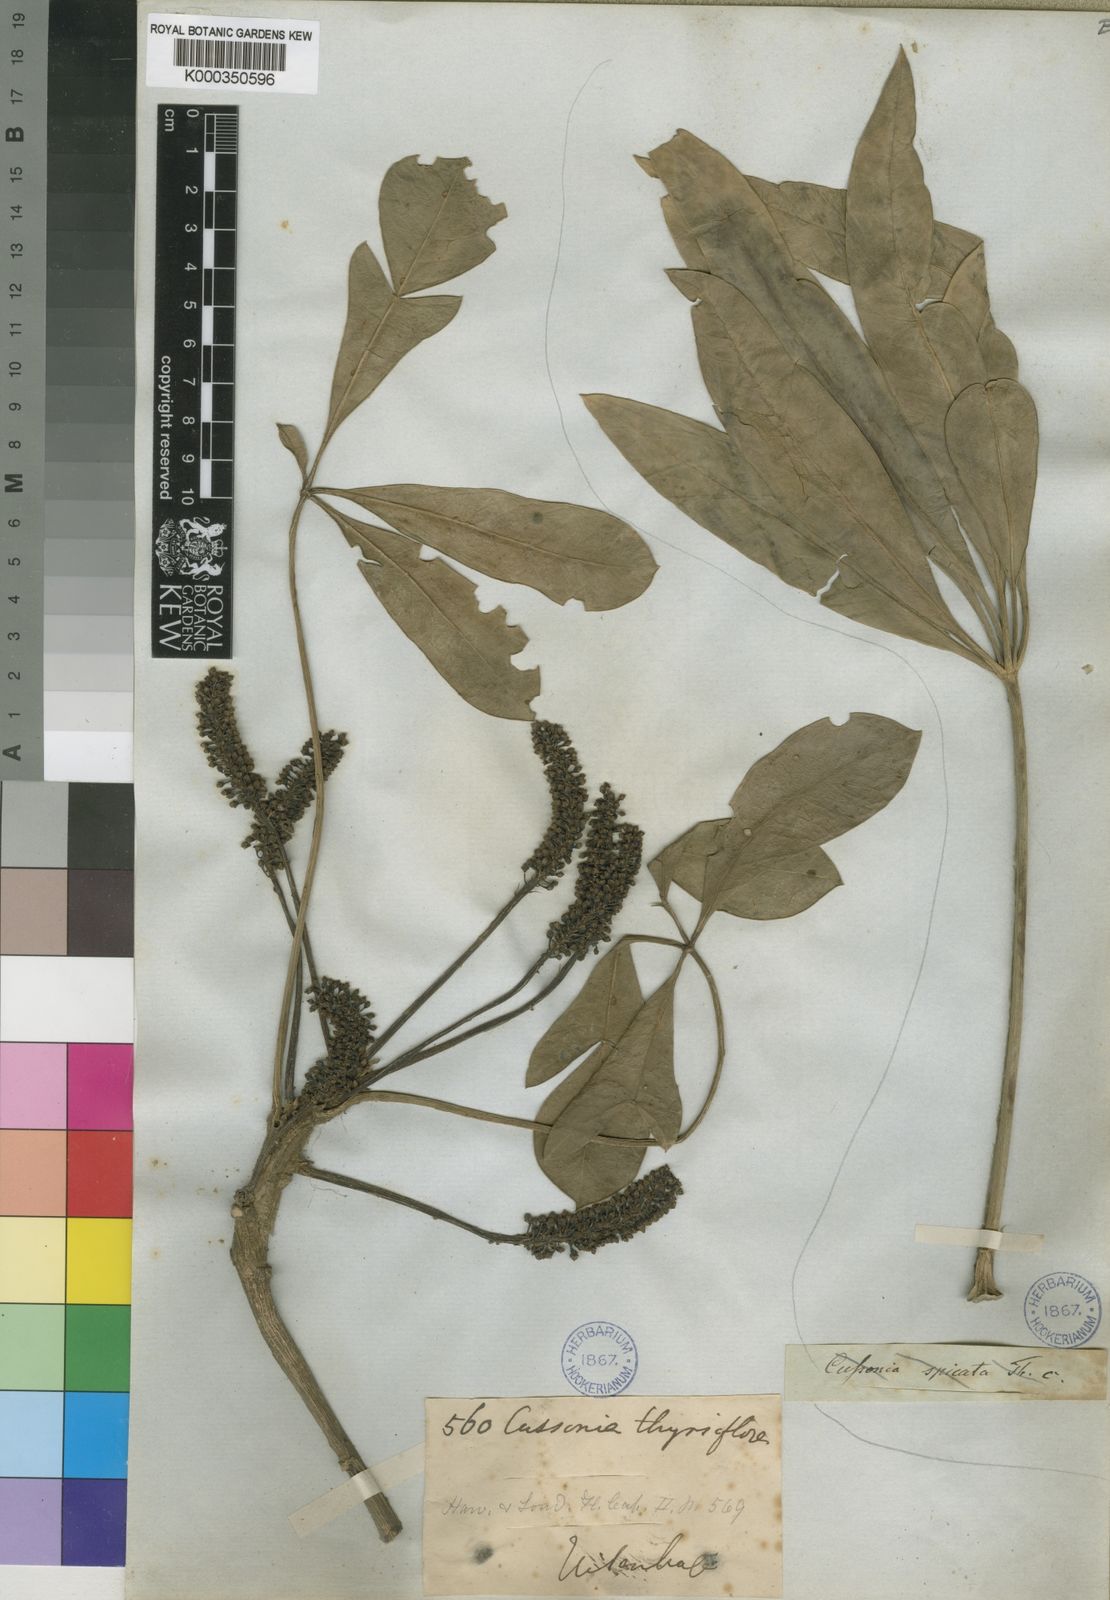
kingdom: Plantae
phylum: Tracheophyta
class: Magnoliopsida
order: Apiales
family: Araliaceae
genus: Cussonia
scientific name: Cussonia thyrsiflora
